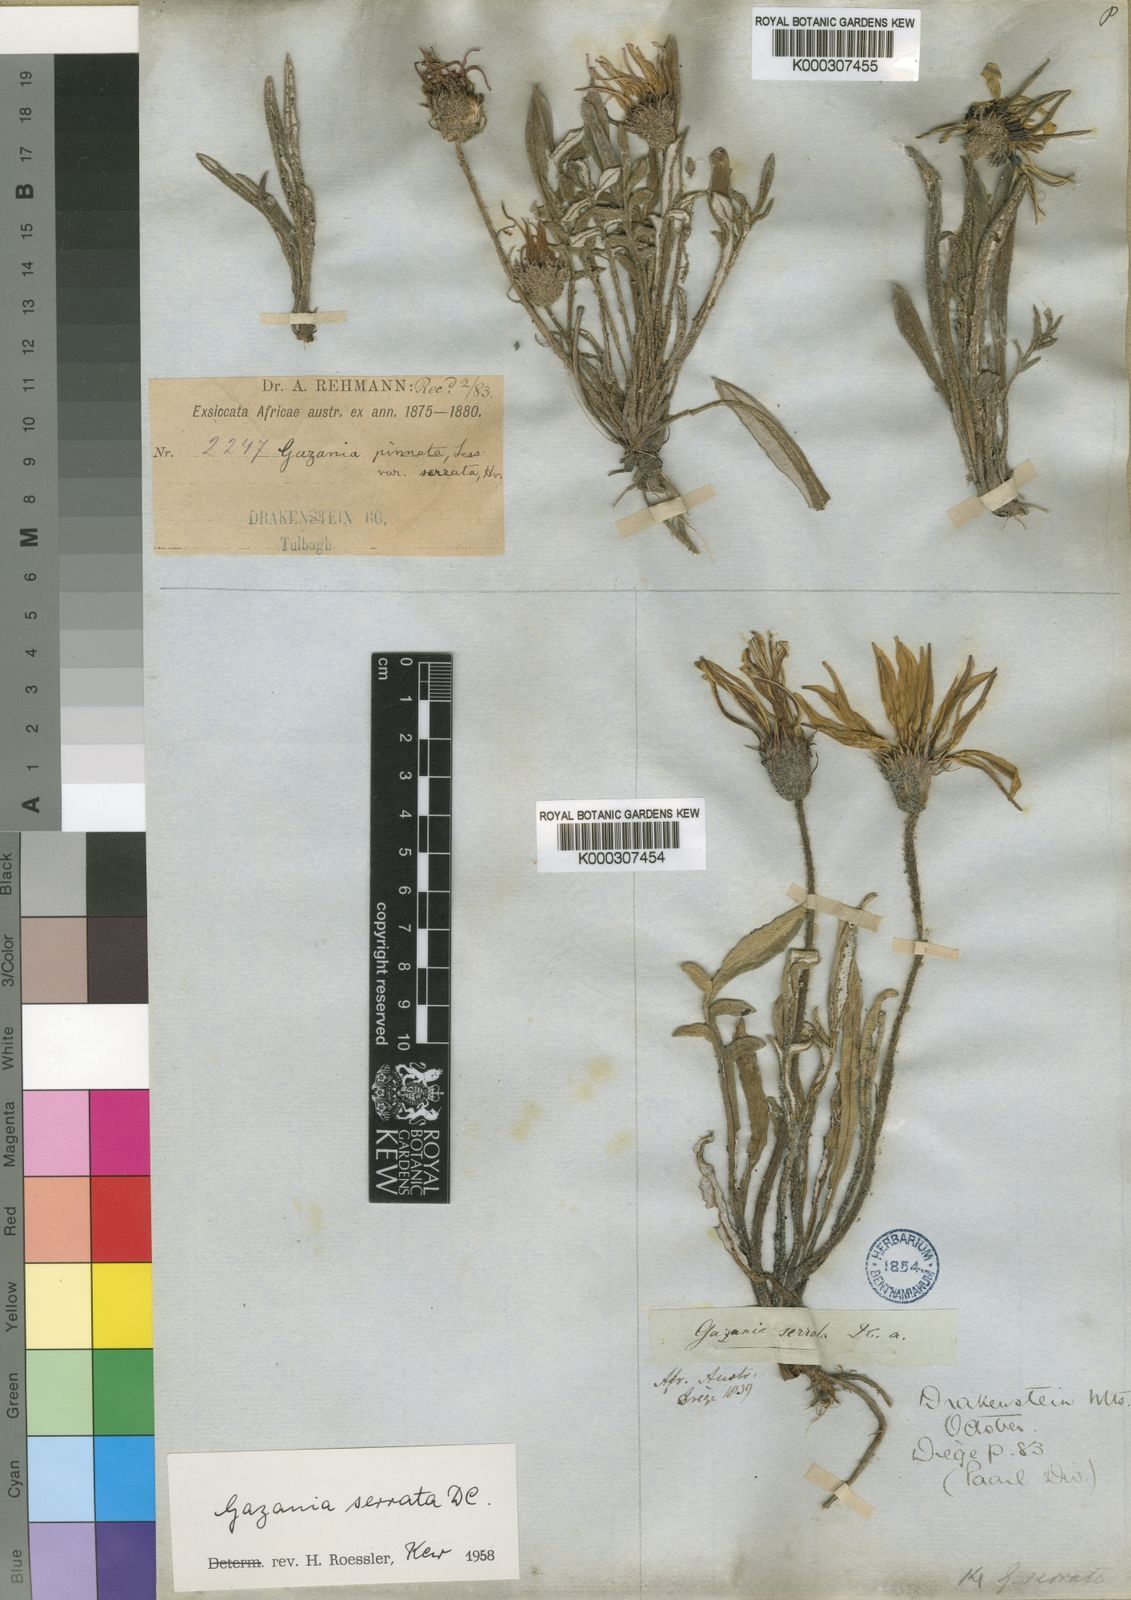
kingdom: Plantae
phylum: Tracheophyta
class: Magnoliopsida
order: Asterales
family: Asteraceae
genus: Gazania
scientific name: Gazania serrata
